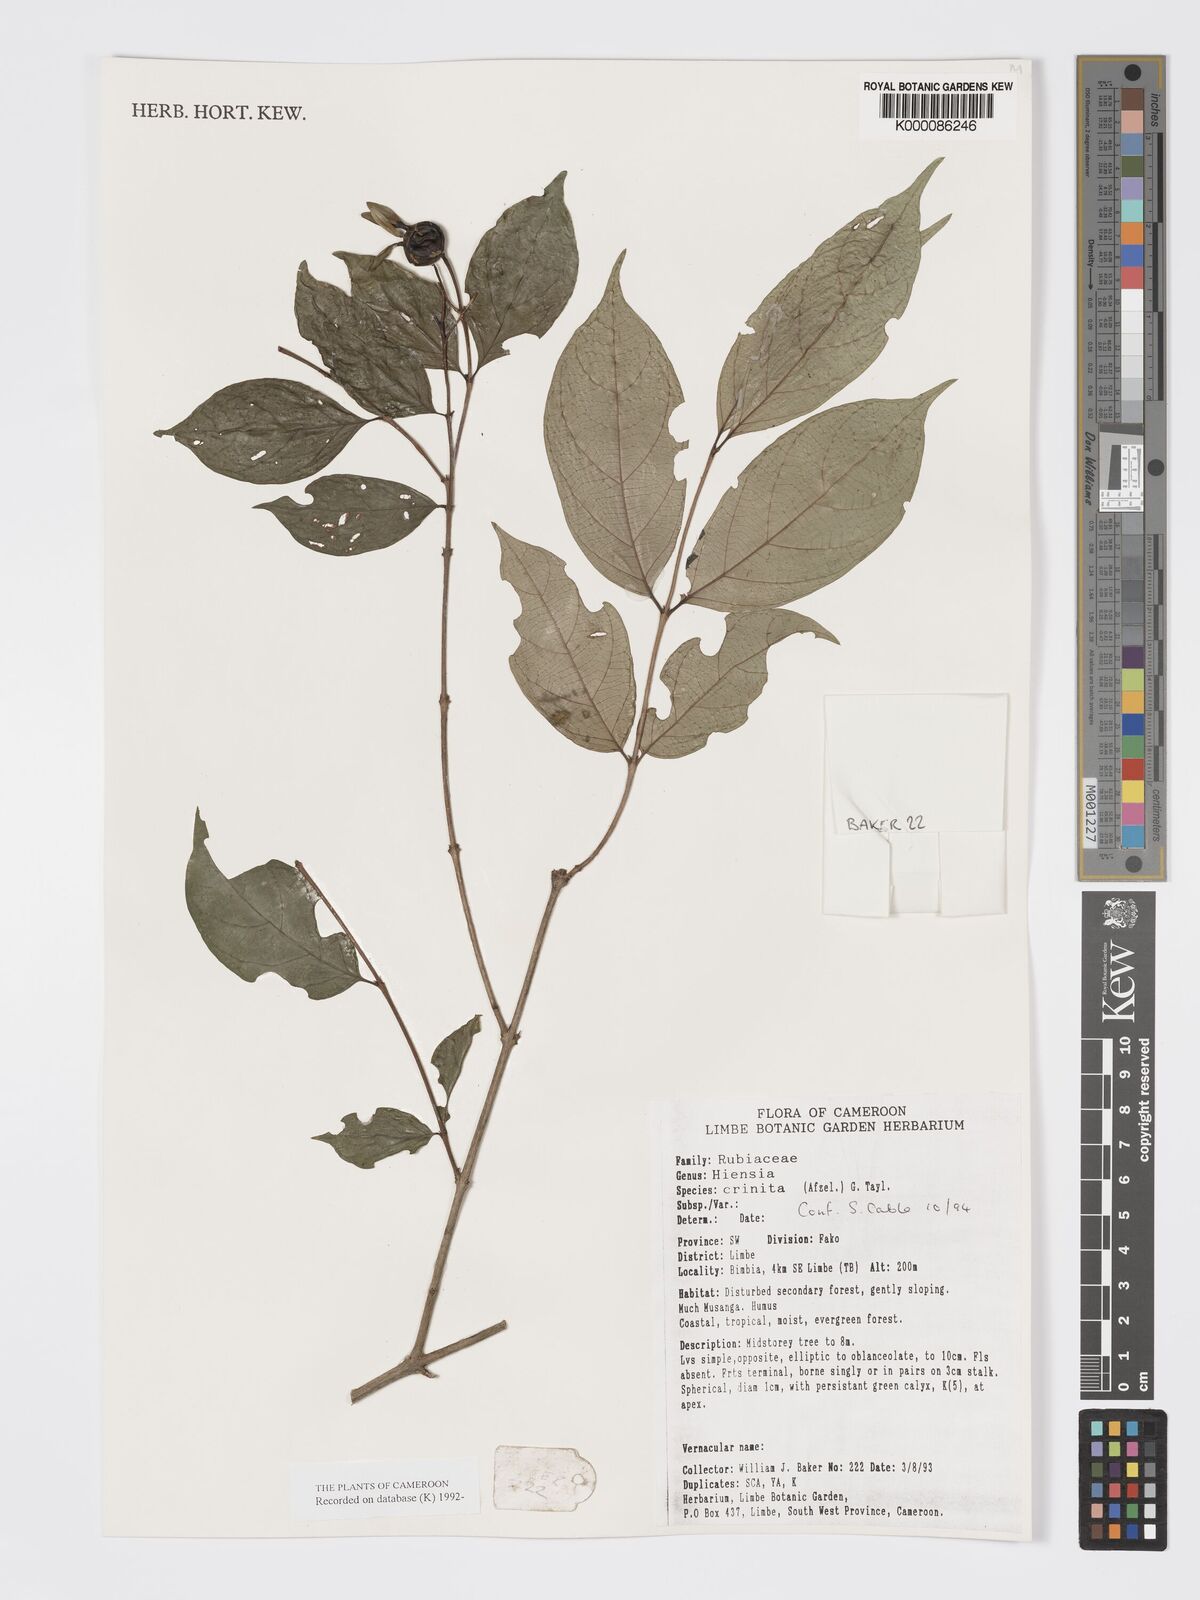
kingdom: Plantae
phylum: Tracheophyta
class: Magnoliopsida
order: Gentianales
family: Rubiaceae
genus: Heinsia
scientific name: Heinsia crinita
